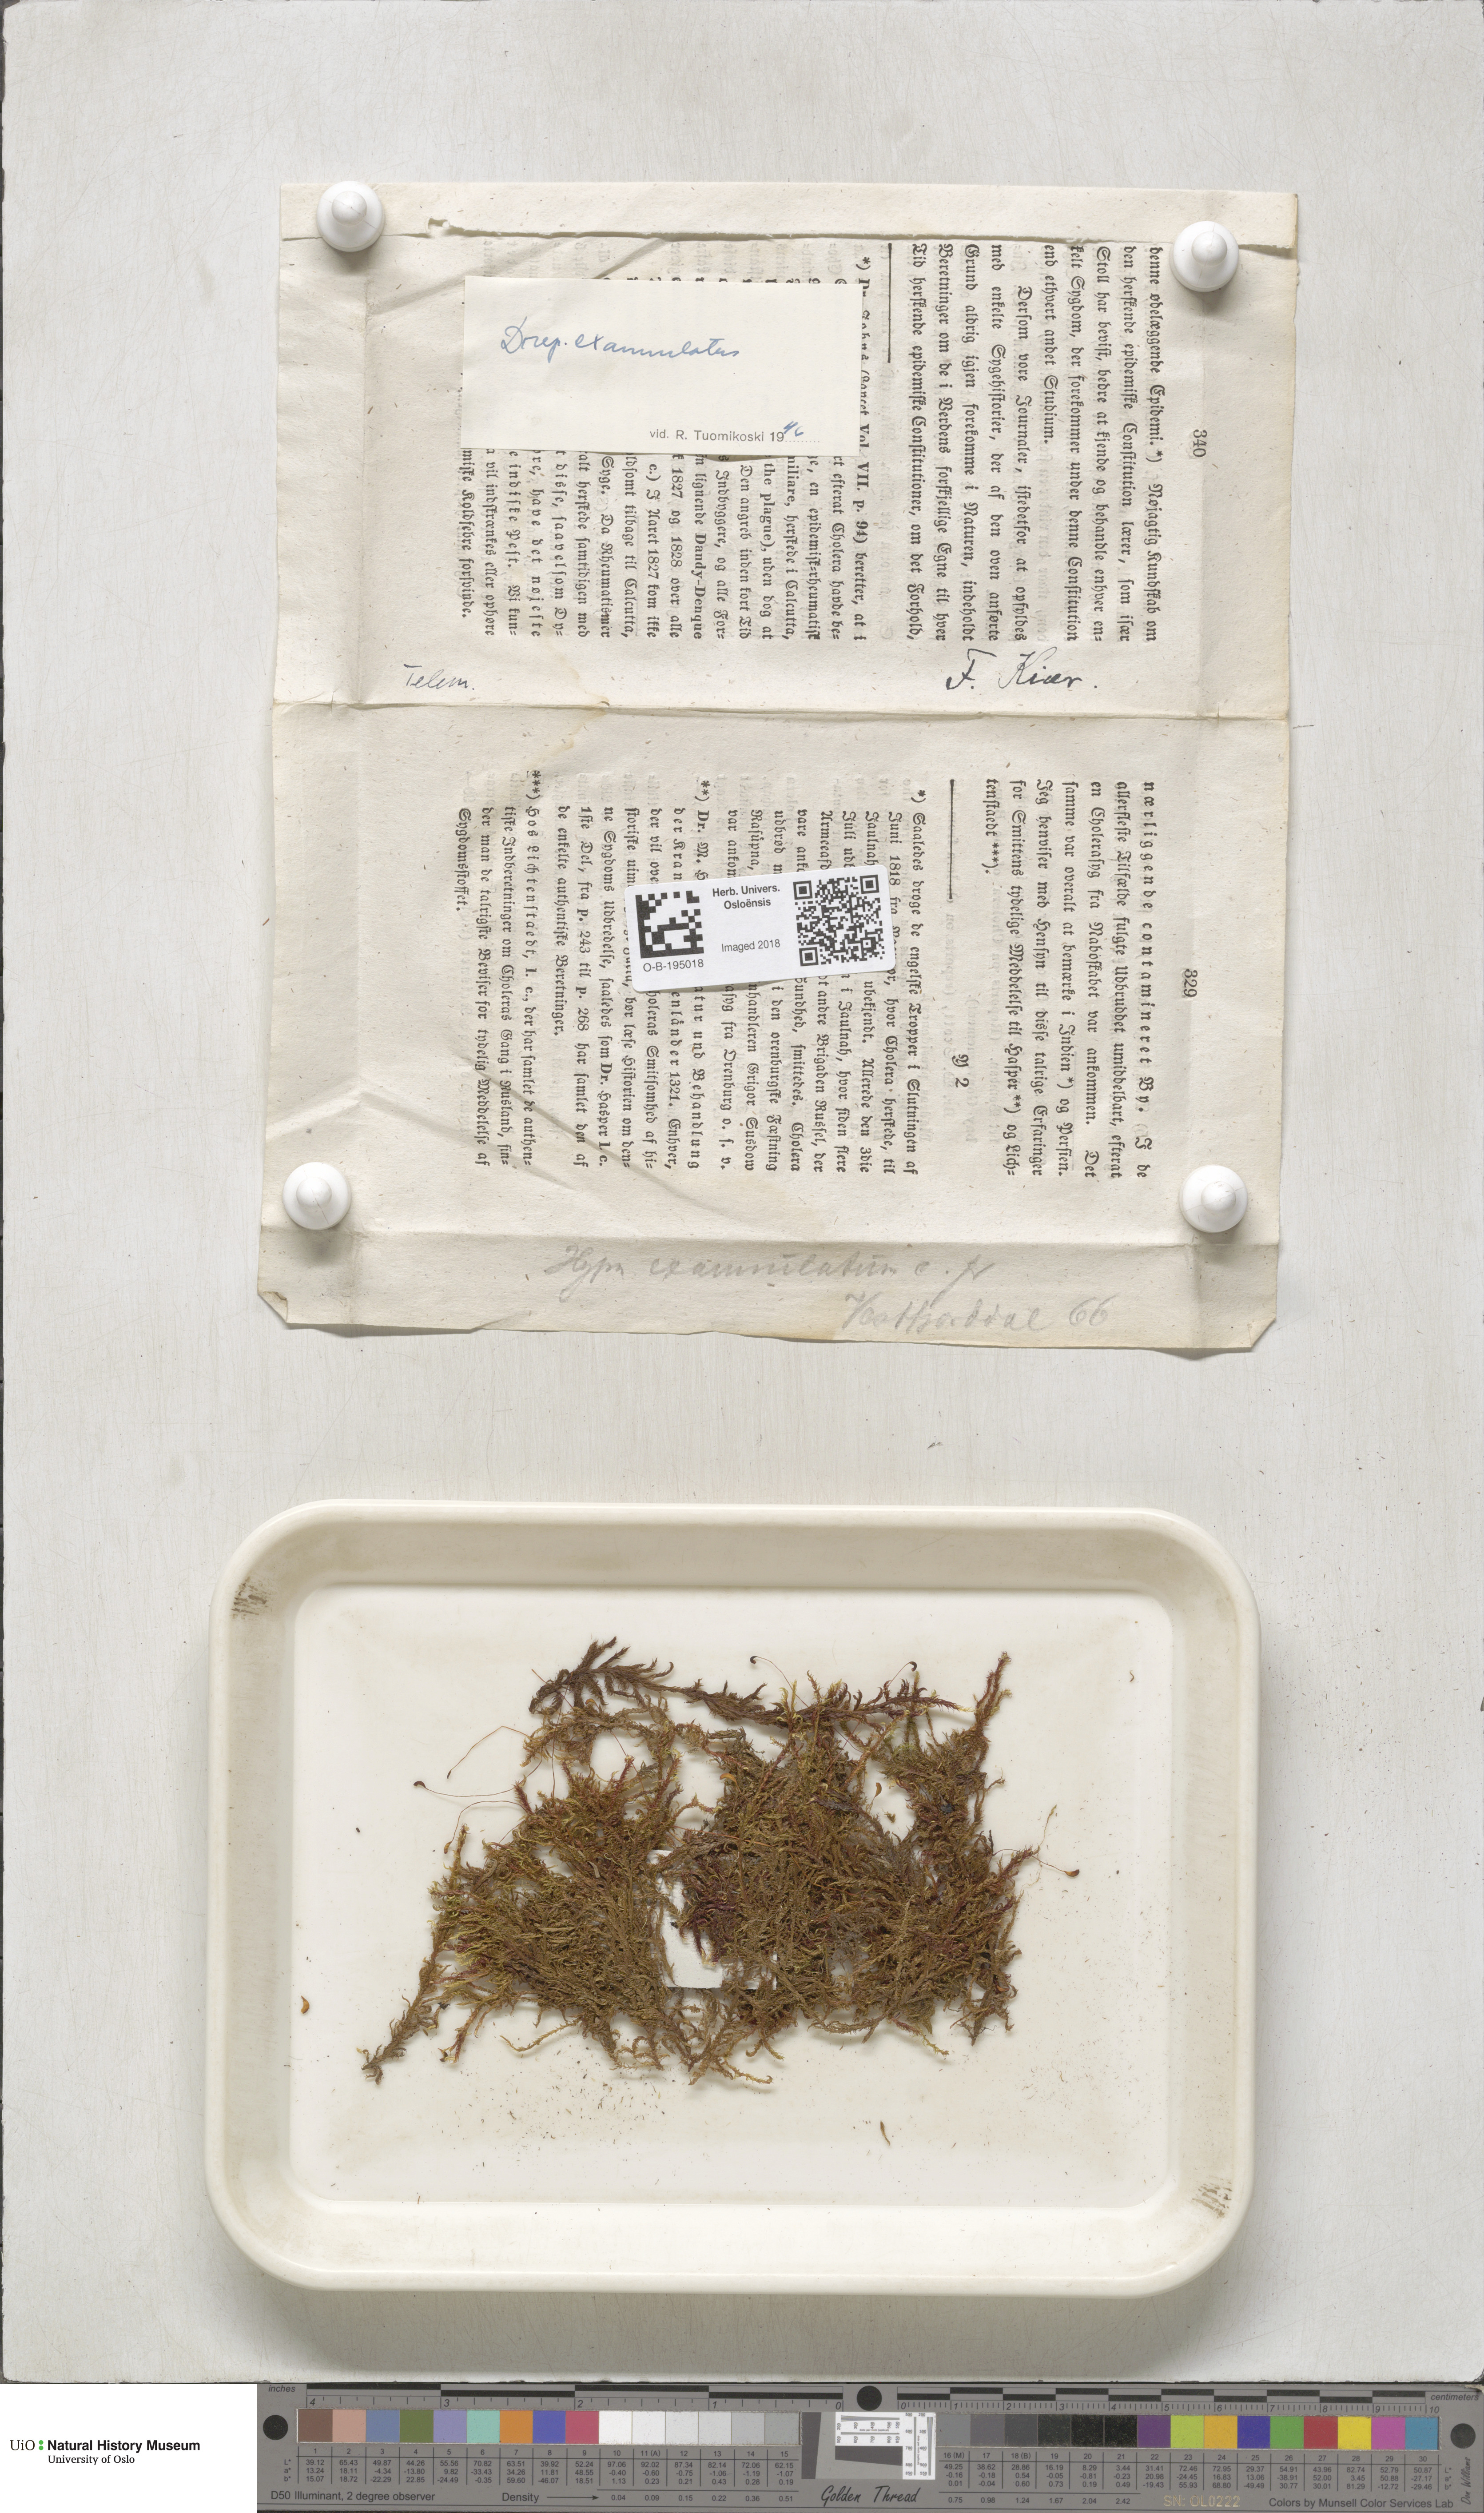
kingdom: Plantae
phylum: Bryophyta
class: Bryopsida
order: Hypnales
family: Calliergonaceae
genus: Sarmentypnum
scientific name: Sarmentypnum exannulatum
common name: Ringless spoon moss
